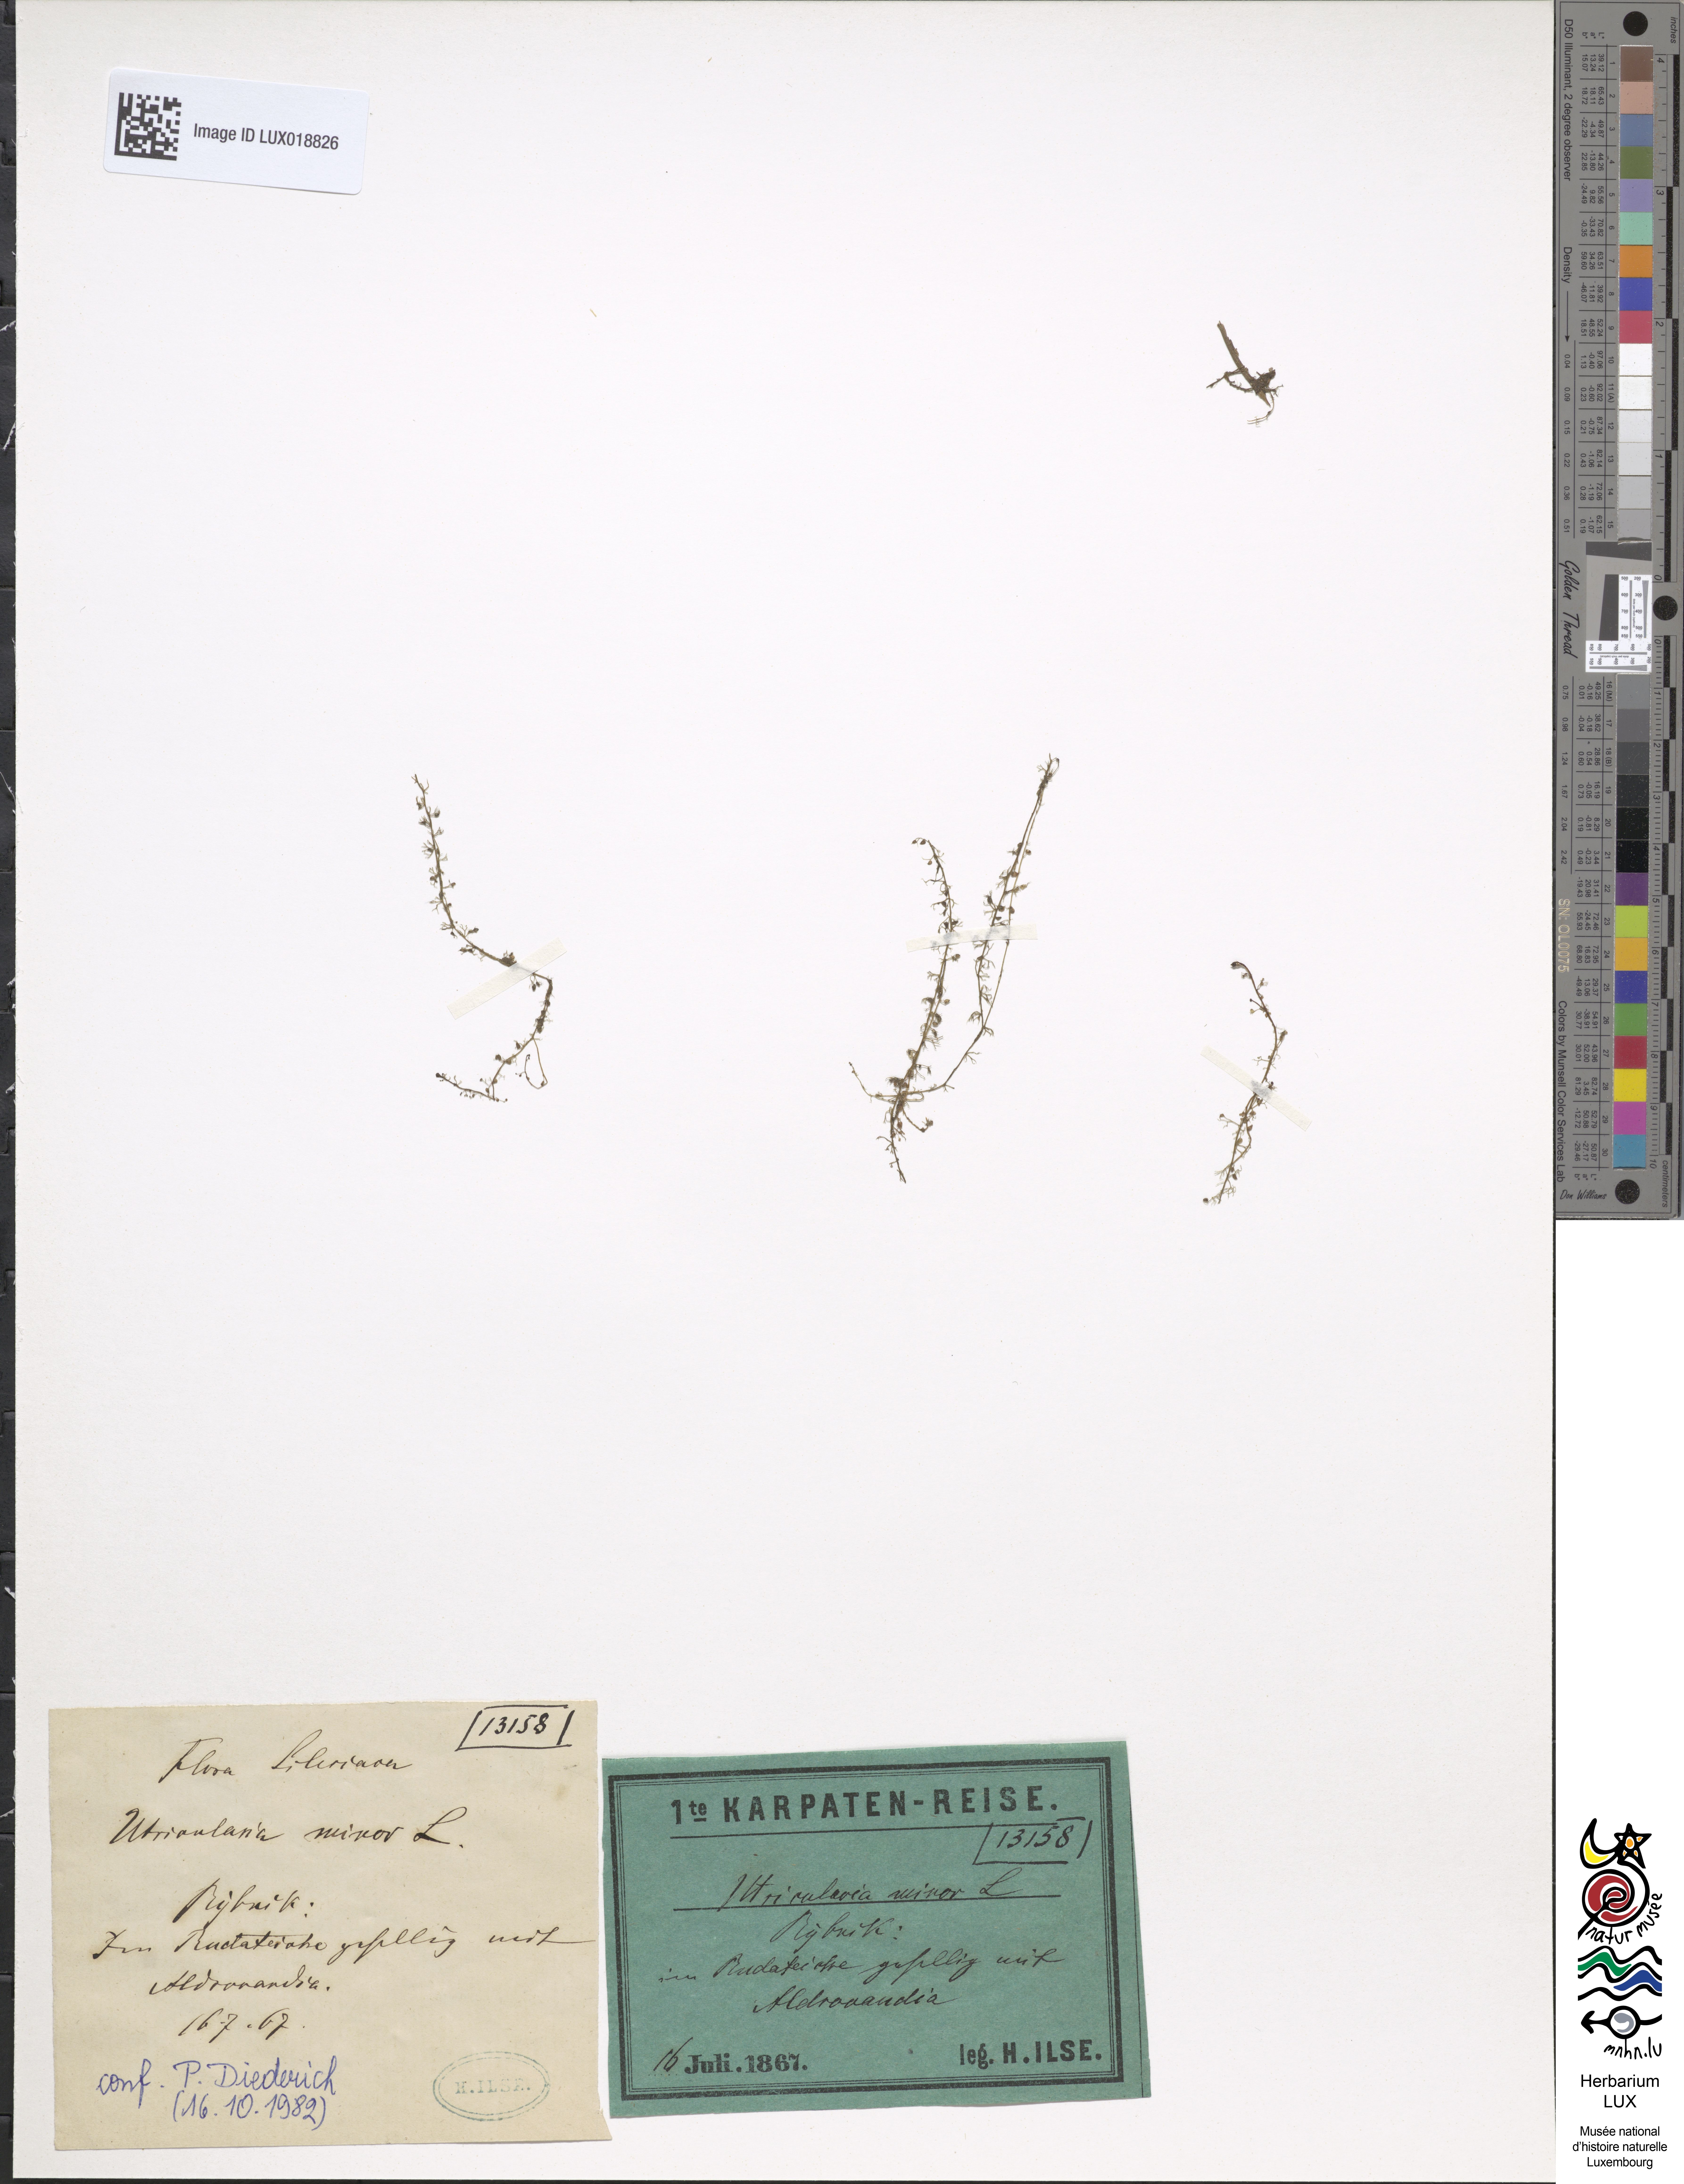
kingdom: Plantae
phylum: Tracheophyta
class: Magnoliopsida
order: Lamiales
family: Lentibulariaceae
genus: Utricularia
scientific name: Utricularia minor
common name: Lesser bladderwort
